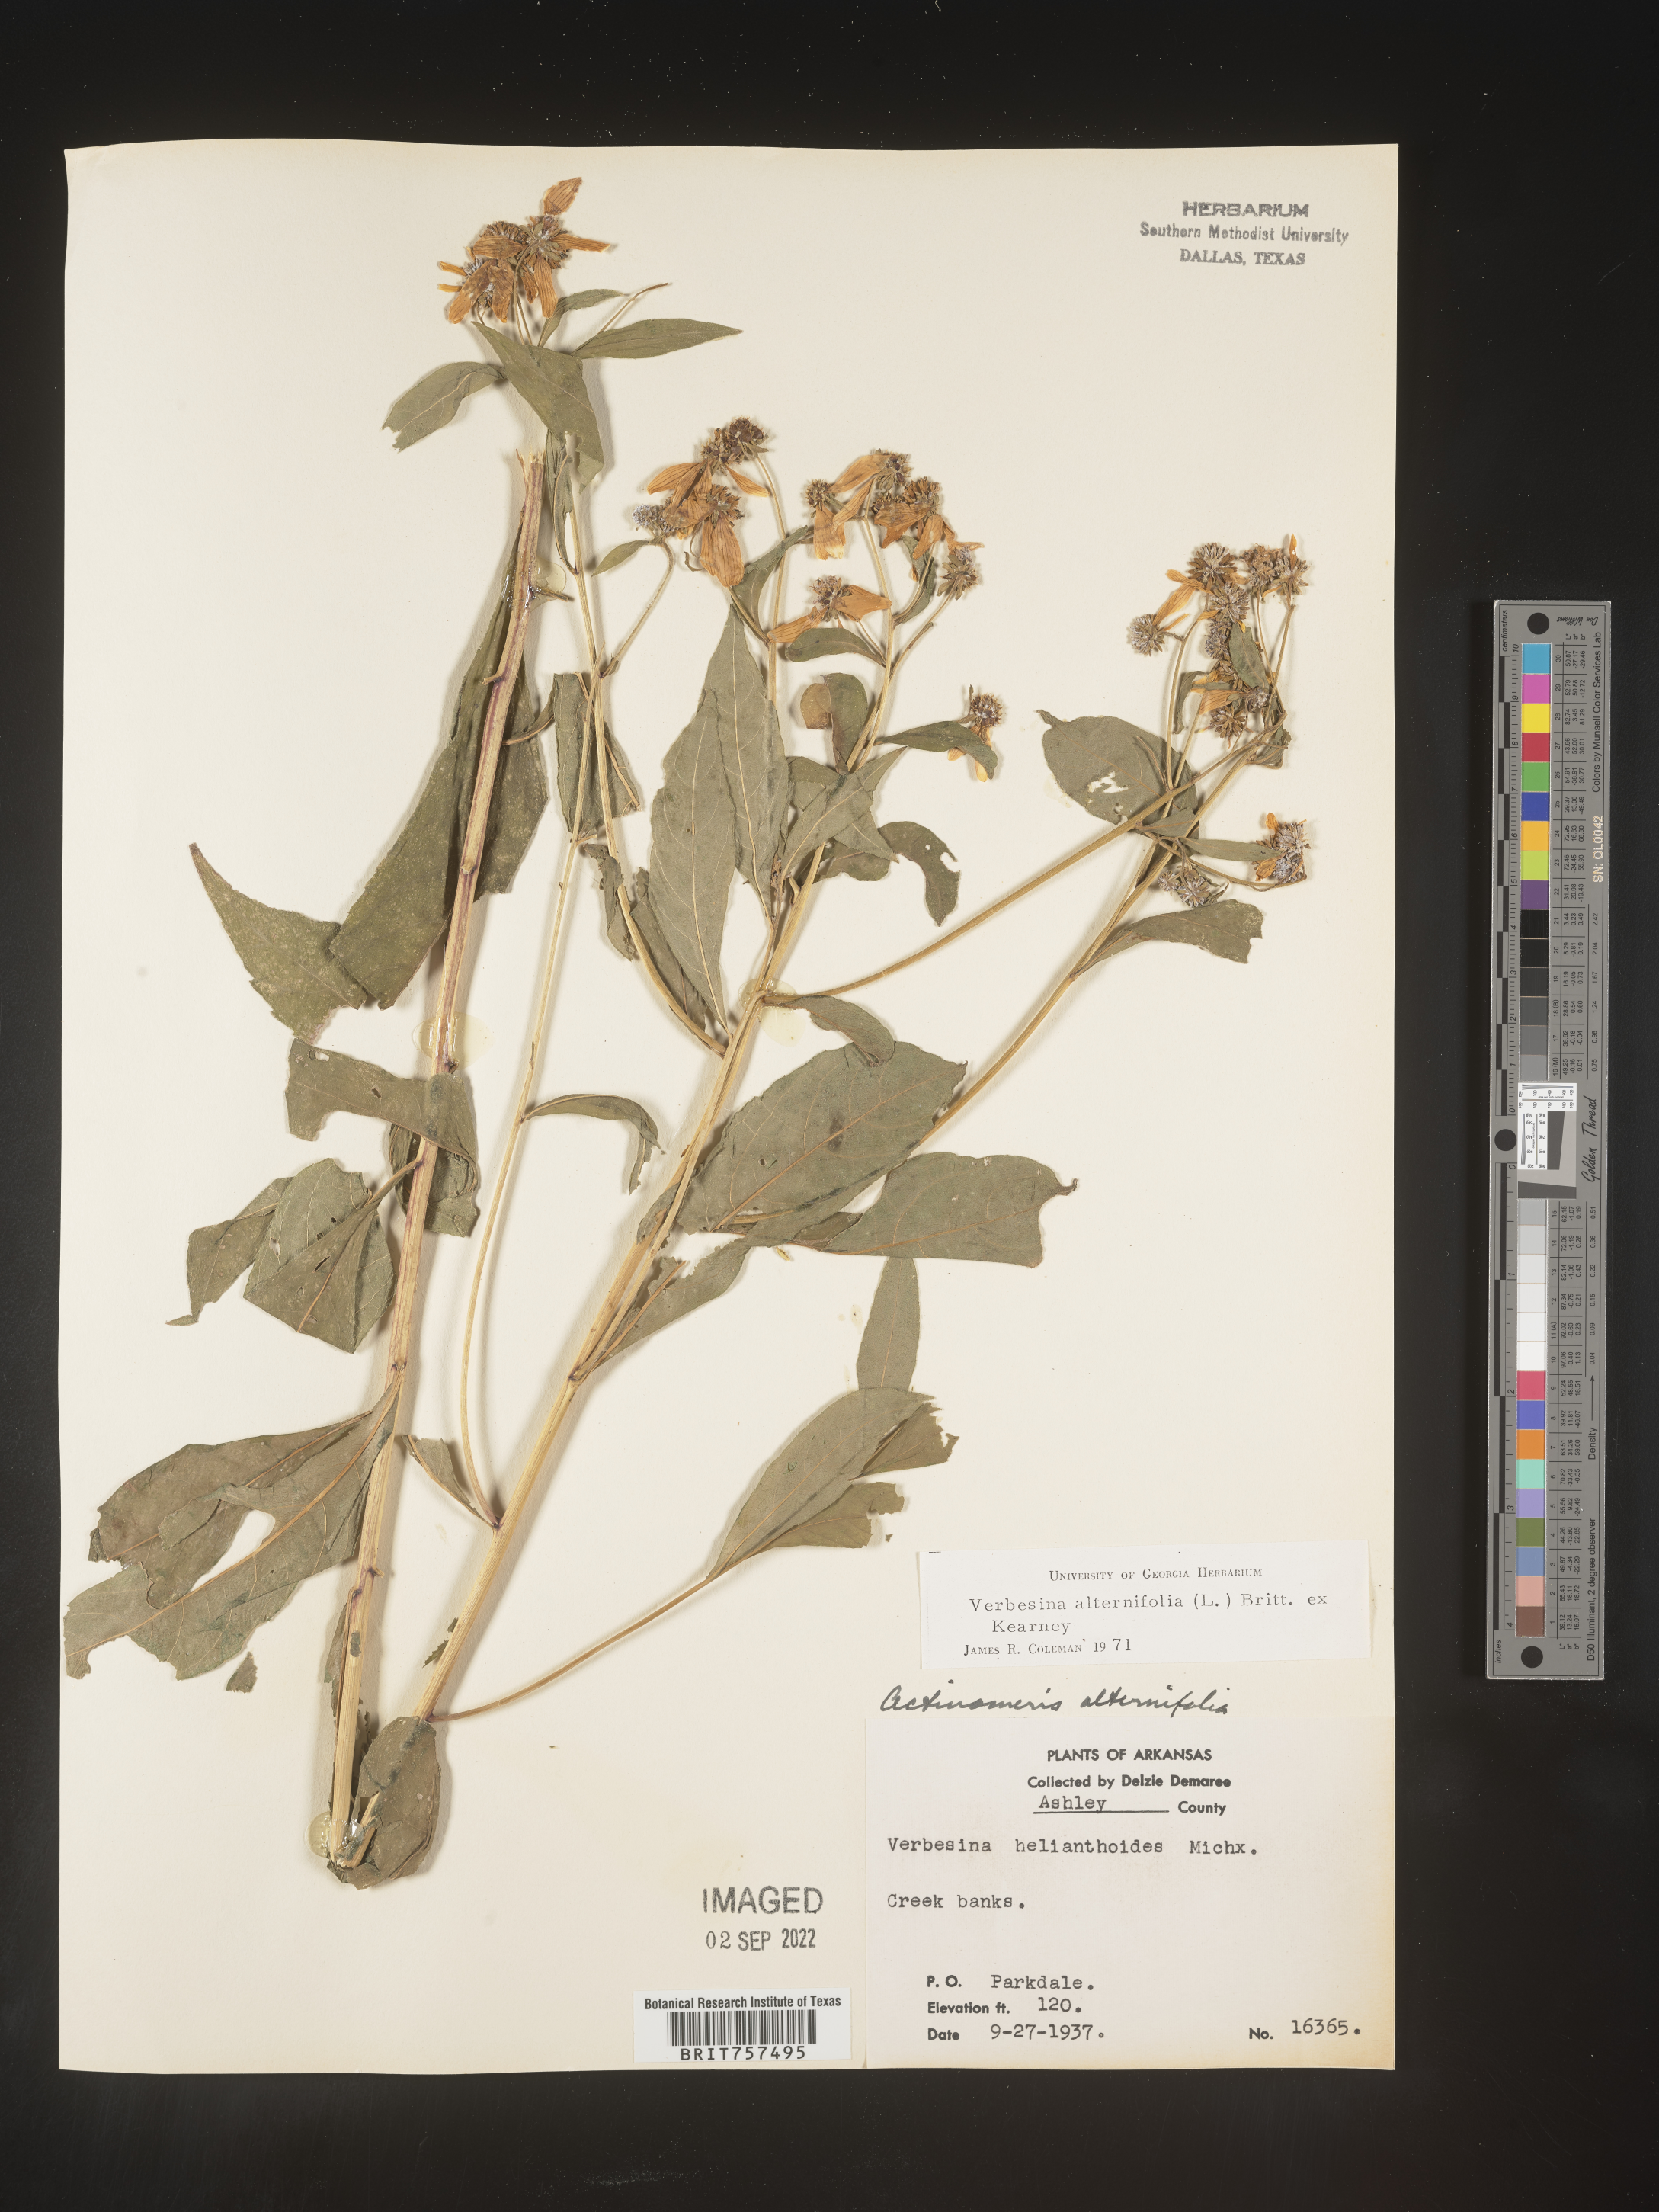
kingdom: Plantae
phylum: Tracheophyta
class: Magnoliopsida
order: Asterales
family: Asteraceae
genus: Verbesina
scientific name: Verbesina alternifolia
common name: Wingstem
